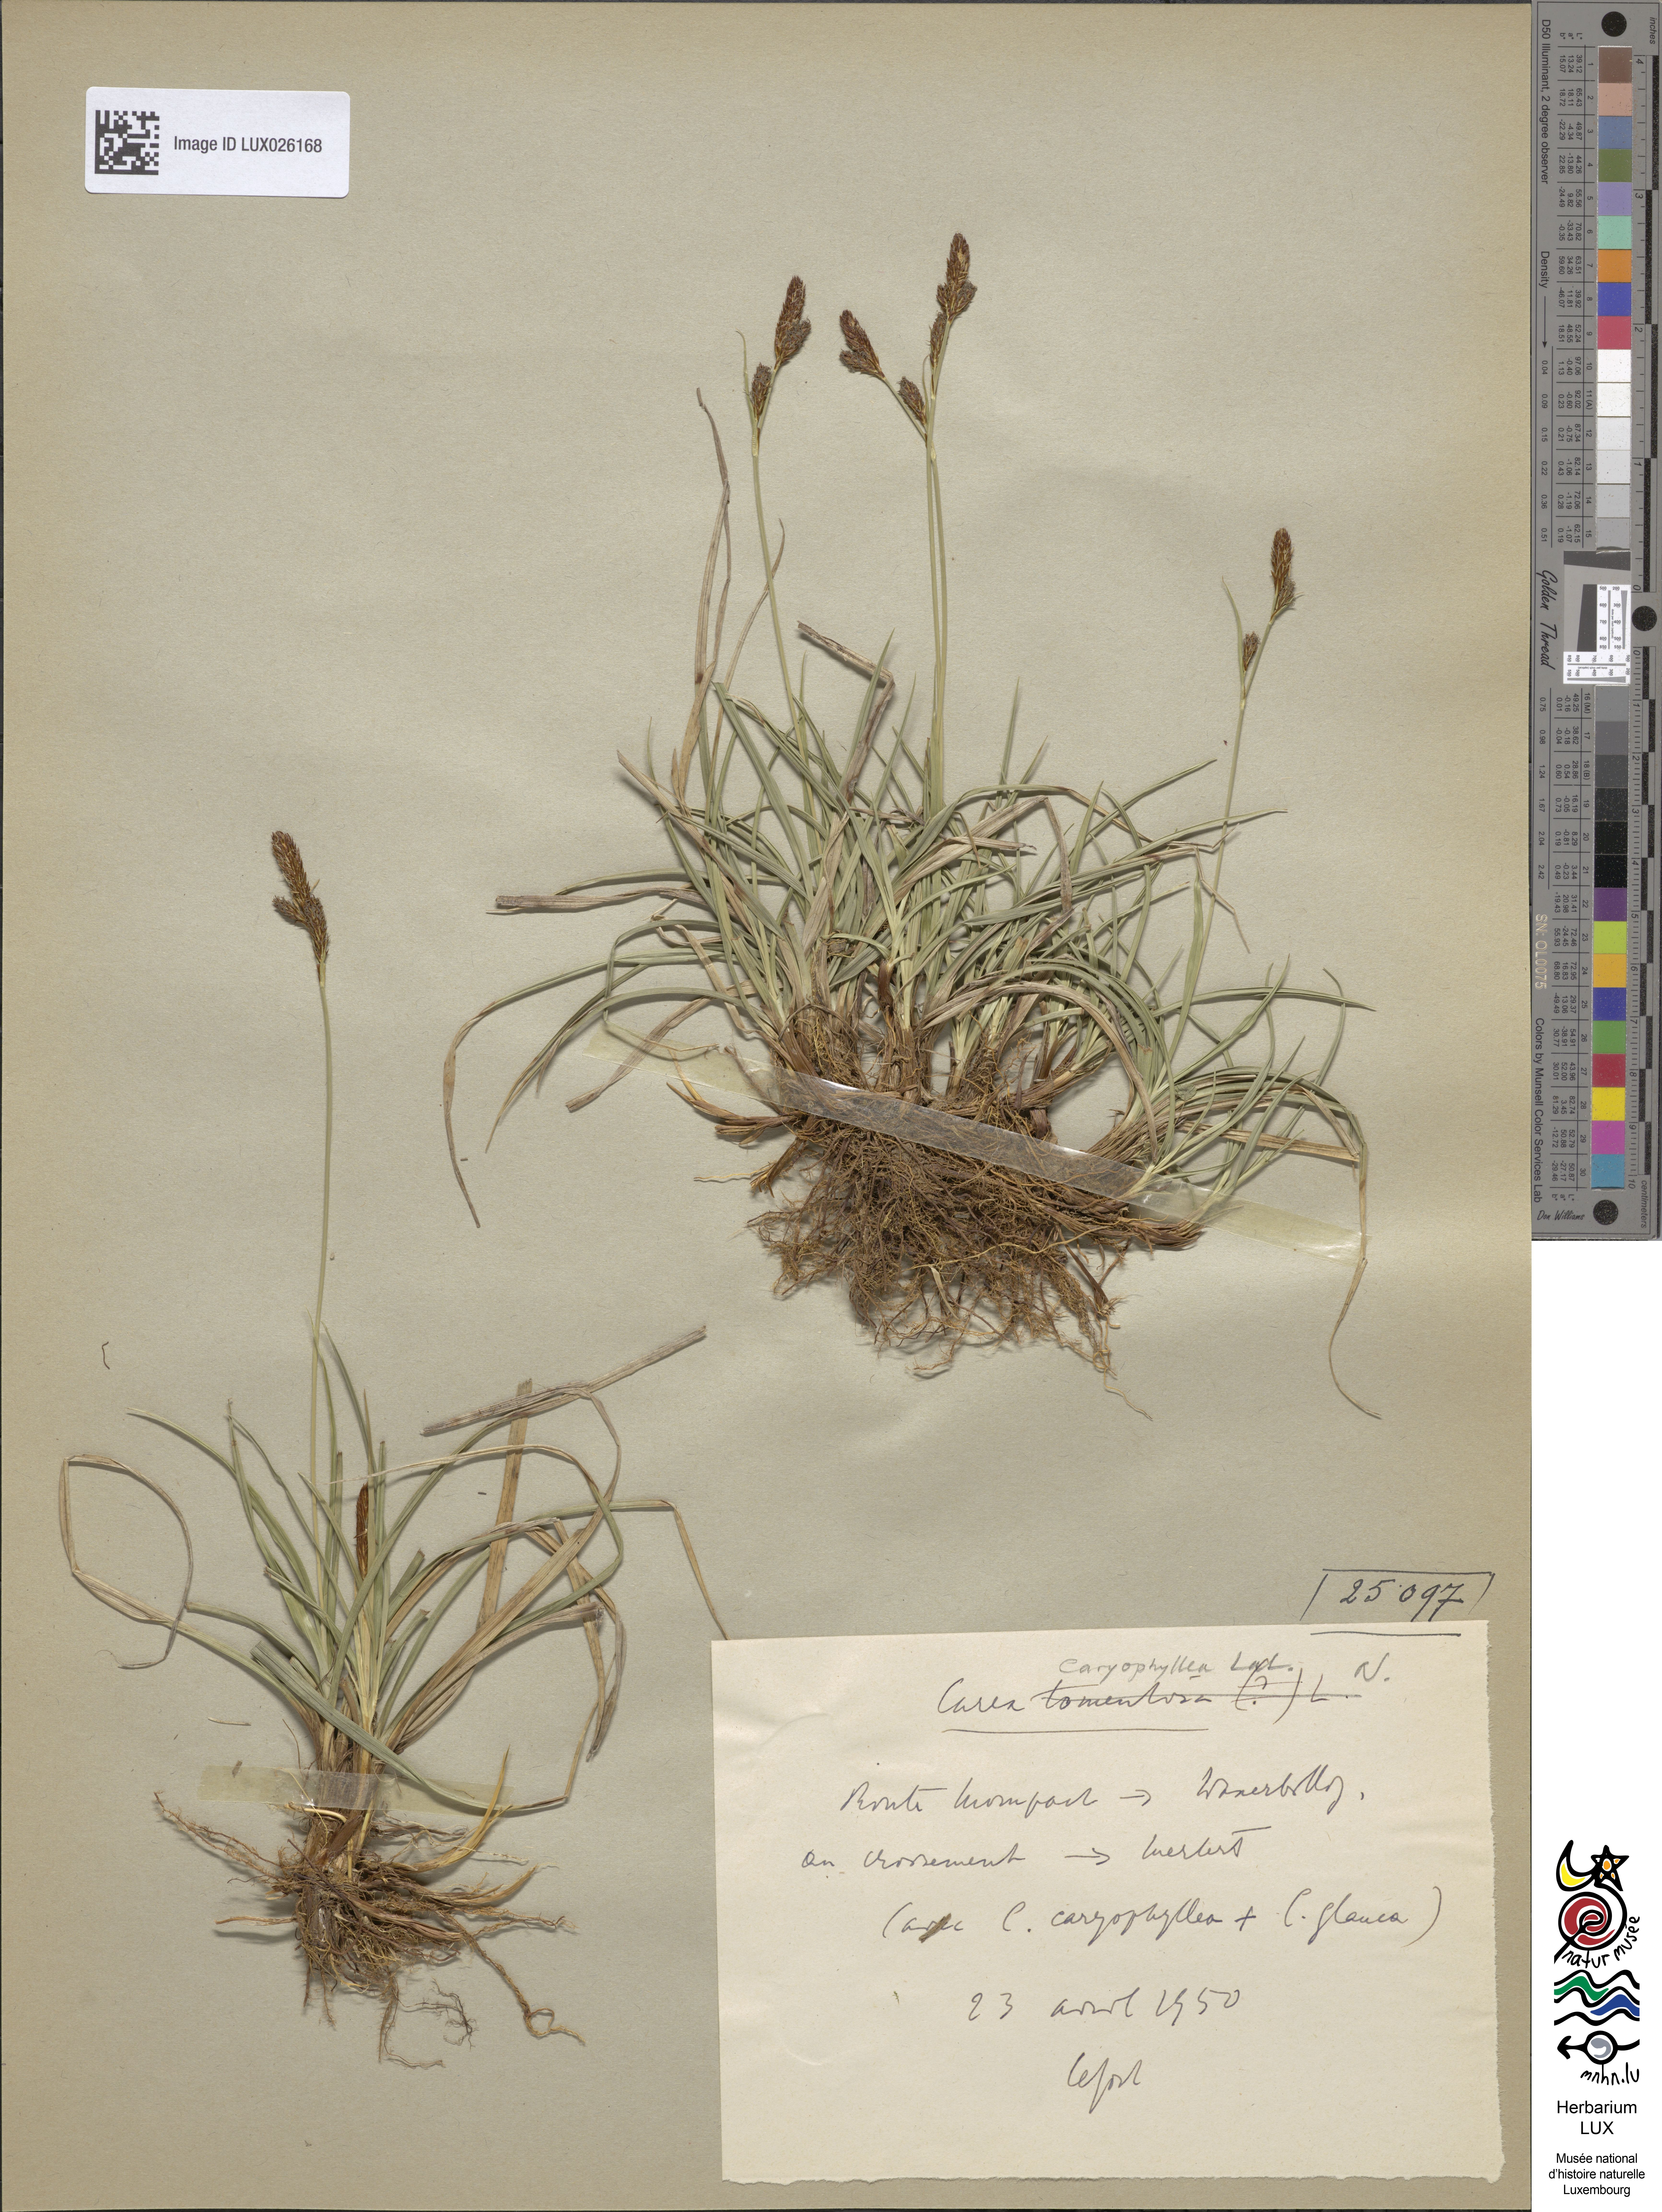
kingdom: Plantae
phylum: Tracheophyta
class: Liliopsida
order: Poales
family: Cyperaceae
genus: Carex
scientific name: Carex caryophyllea
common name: Spring sedge
